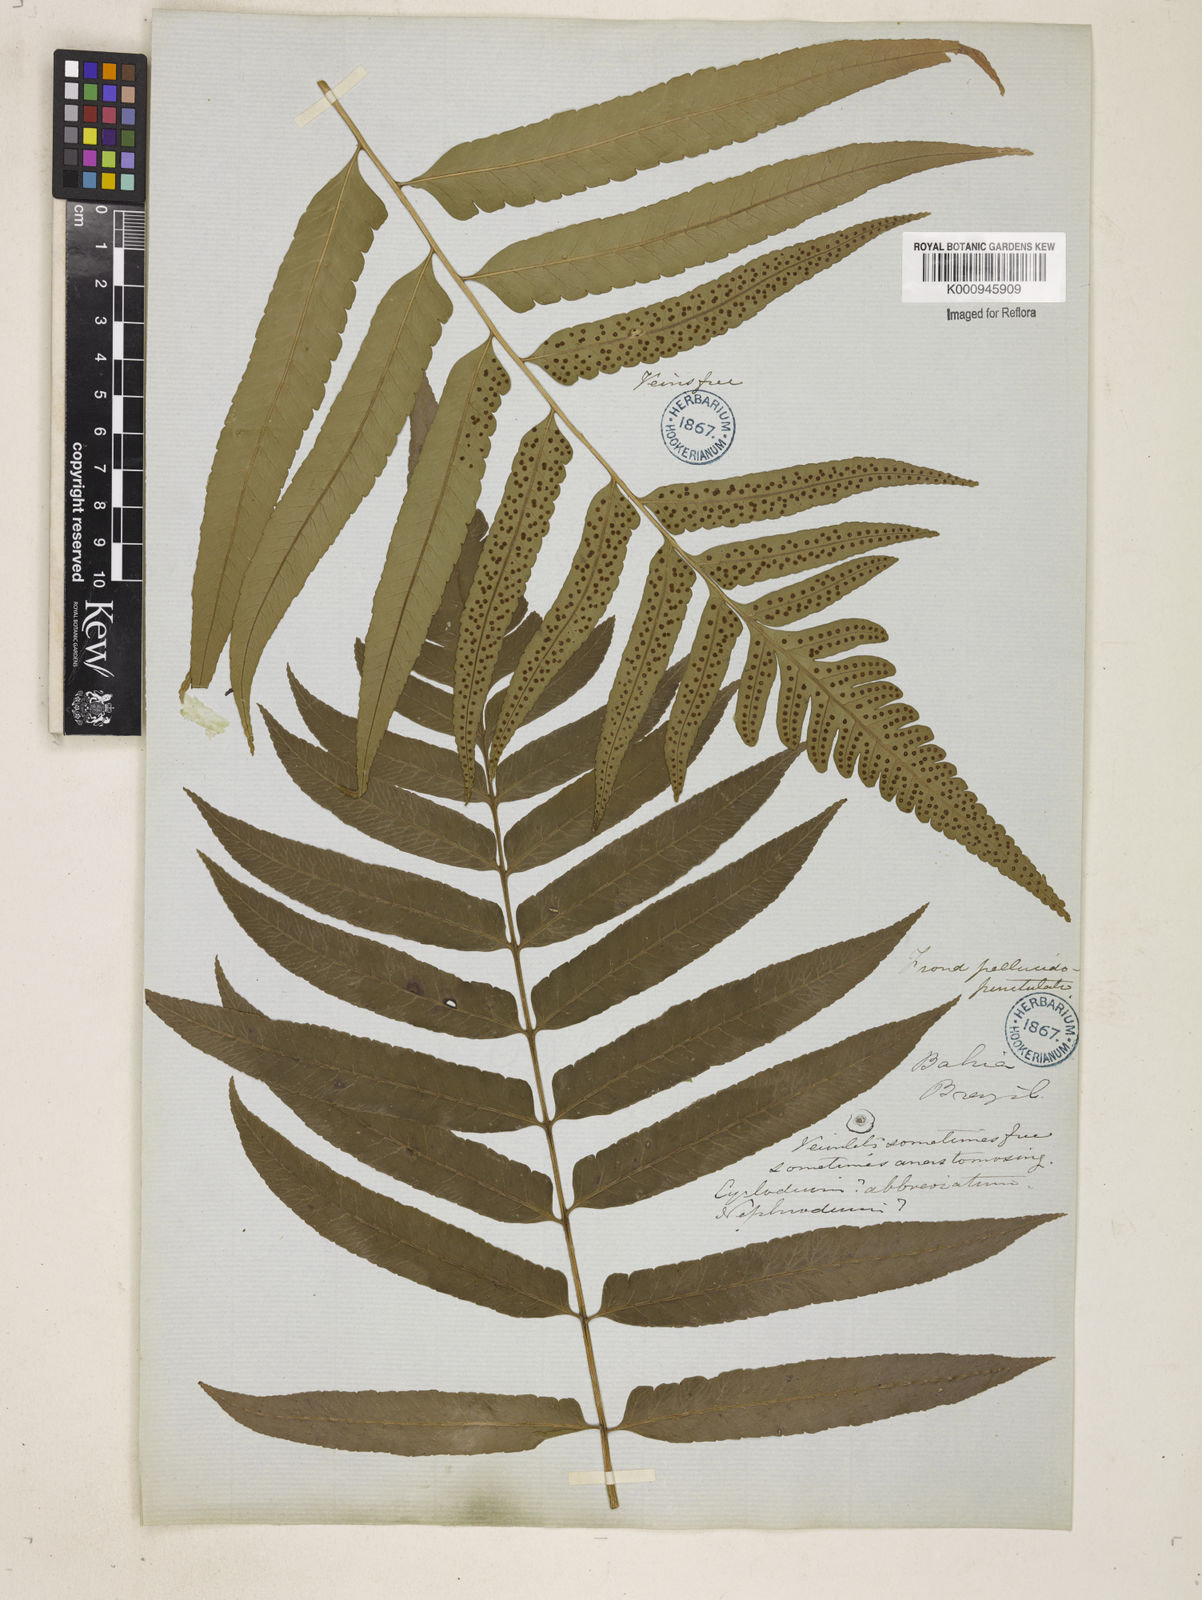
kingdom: Plantae
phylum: Tracheophyta
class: Polypodiopsida
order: Polypodiales
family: Dryopteridaceae
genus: Cyclodium
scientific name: Cyclodium
